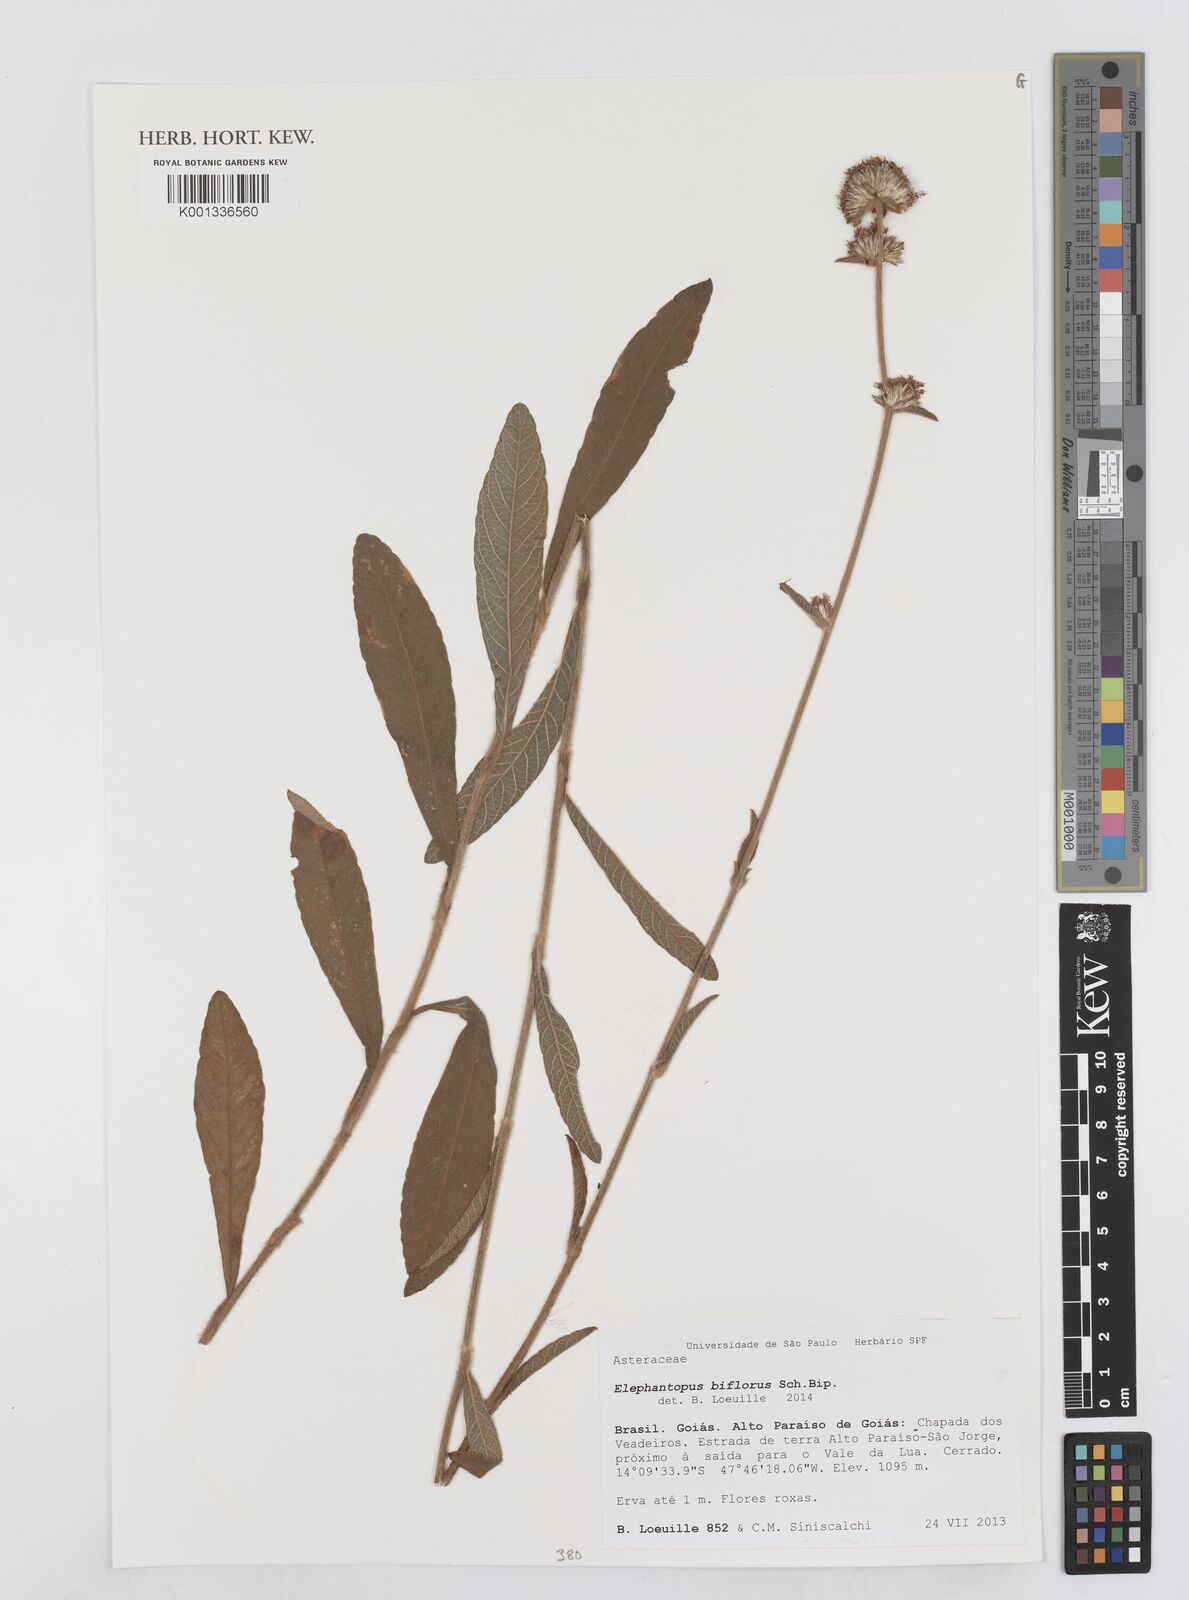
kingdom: Plantae
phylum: Tracheophyta
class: Magnoliopsida
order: Asterales
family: Asteraceae
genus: Elephantopus
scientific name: Elephantopus biflorus
